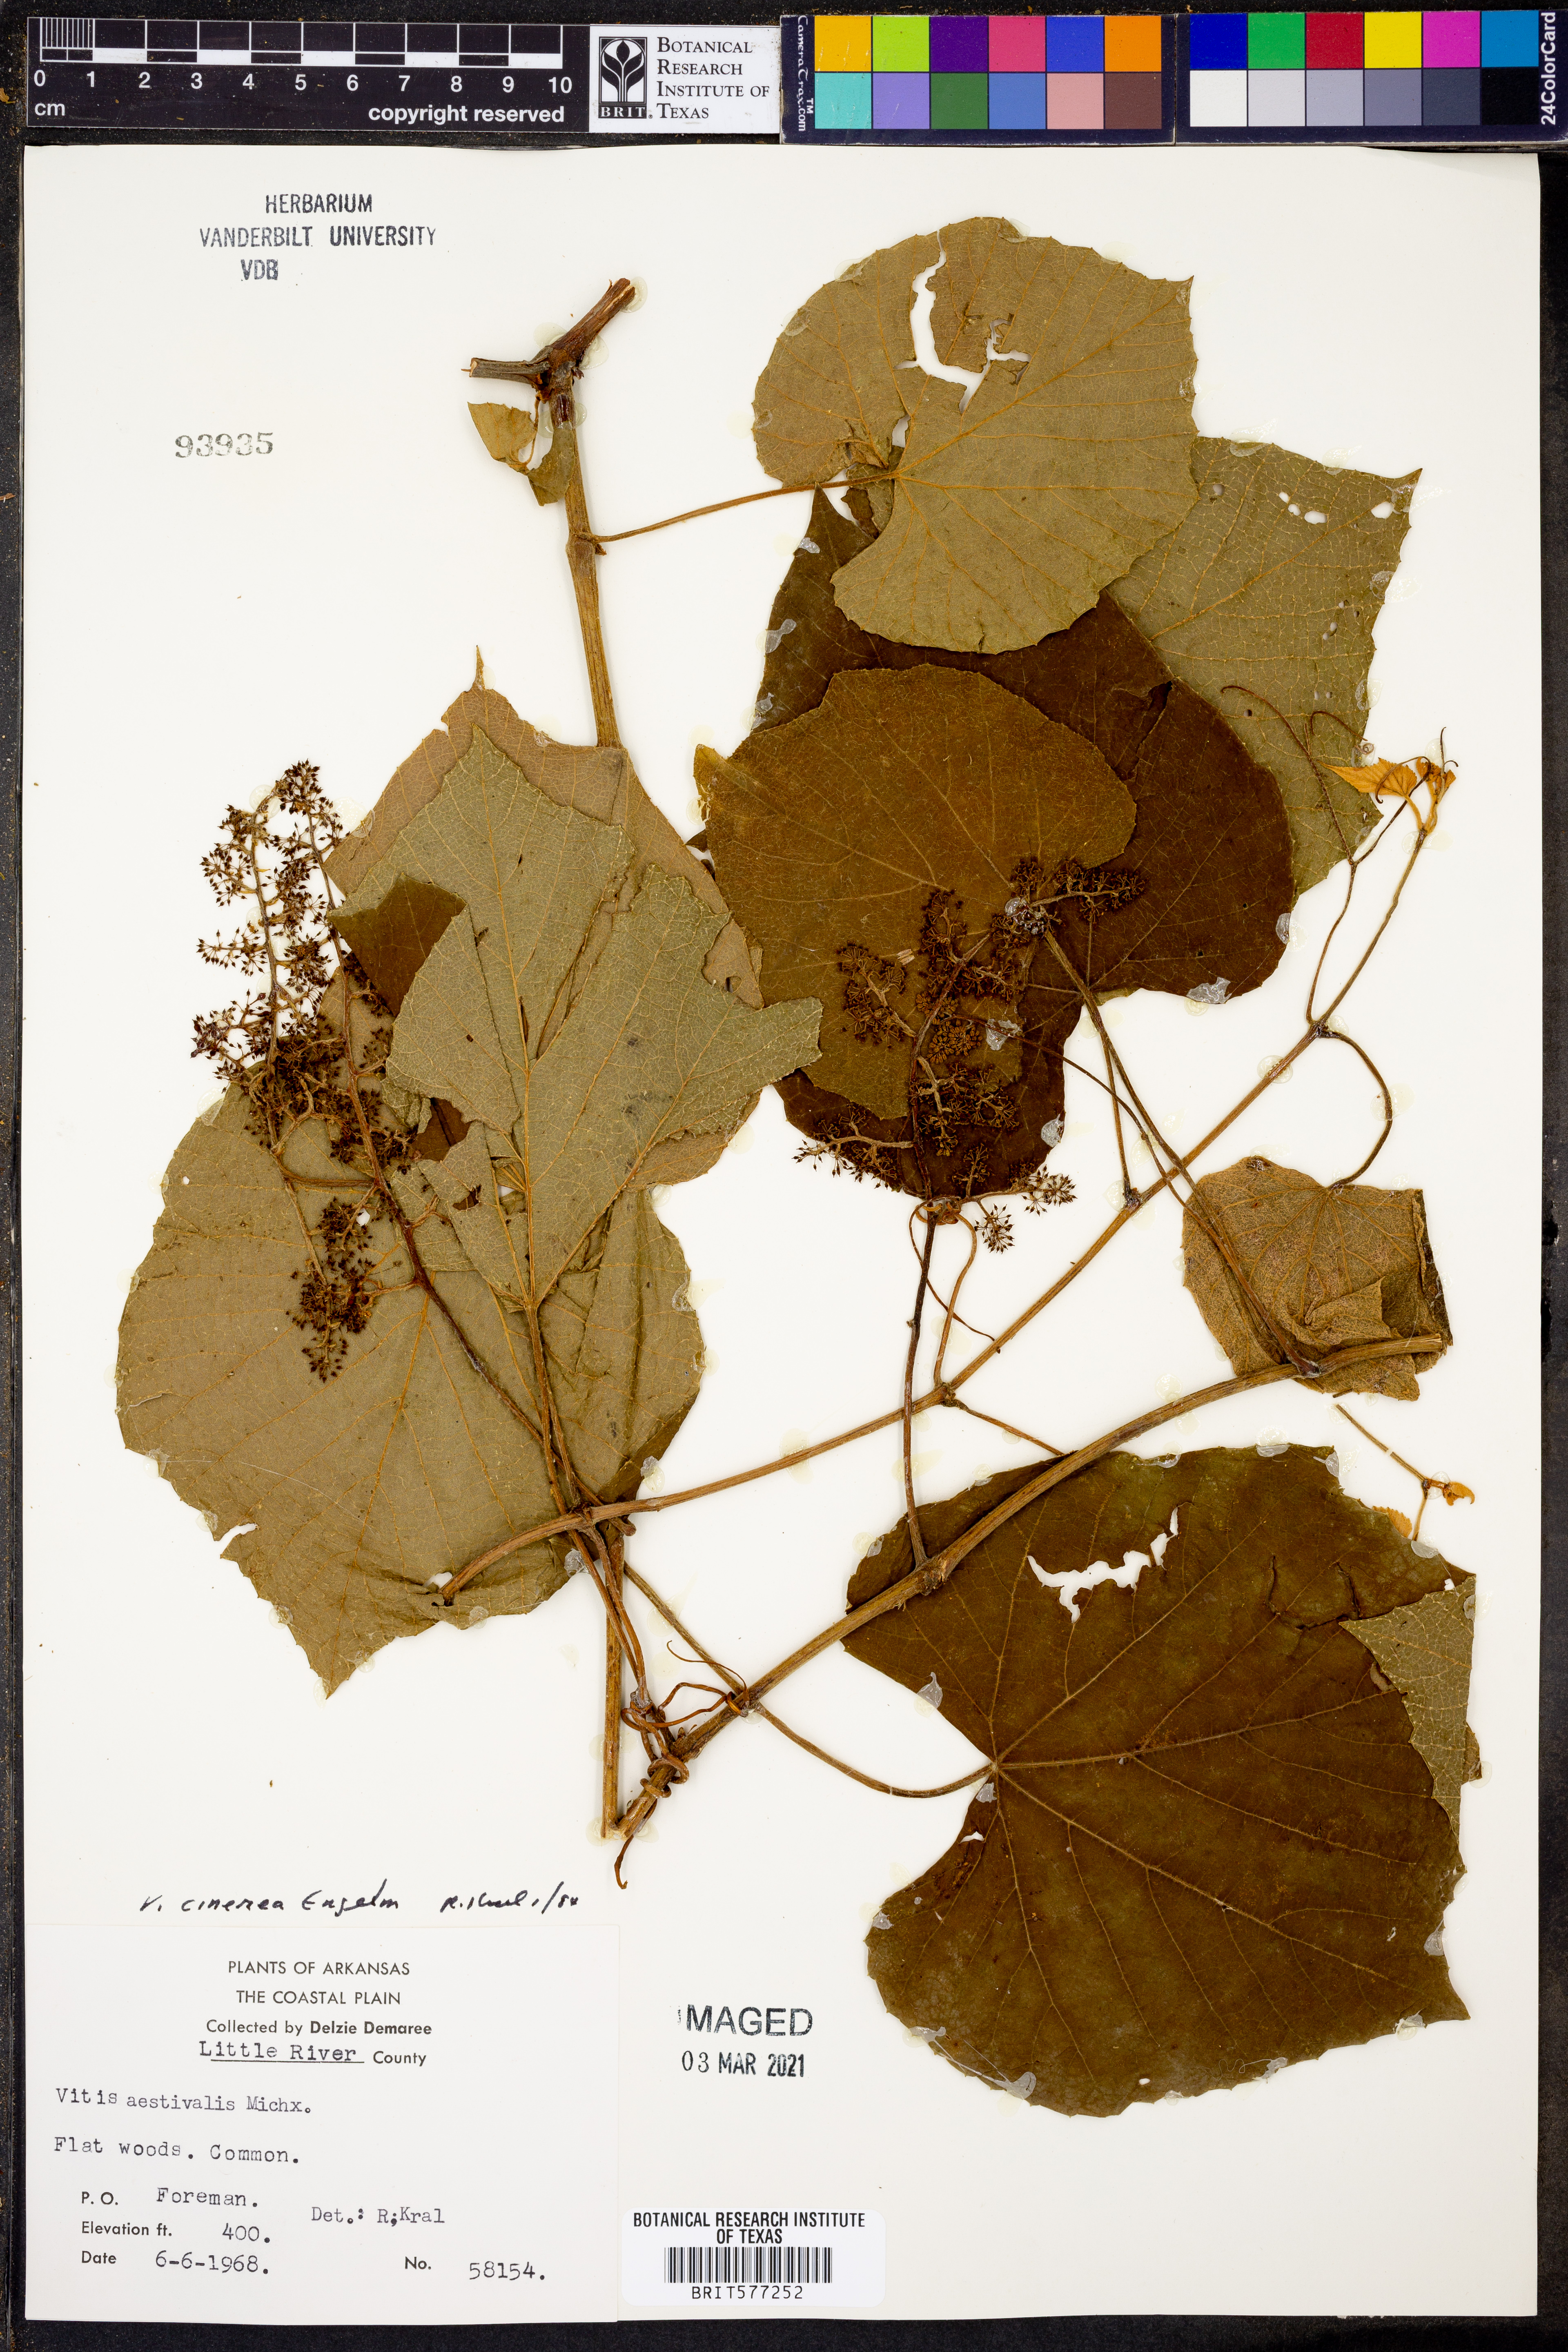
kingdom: Plantae
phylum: Tracheophyta
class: Magnoliopsida
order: Vitales
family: Vitaceae
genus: Vitis
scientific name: Vitis aestivalis
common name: Pigeon grape
